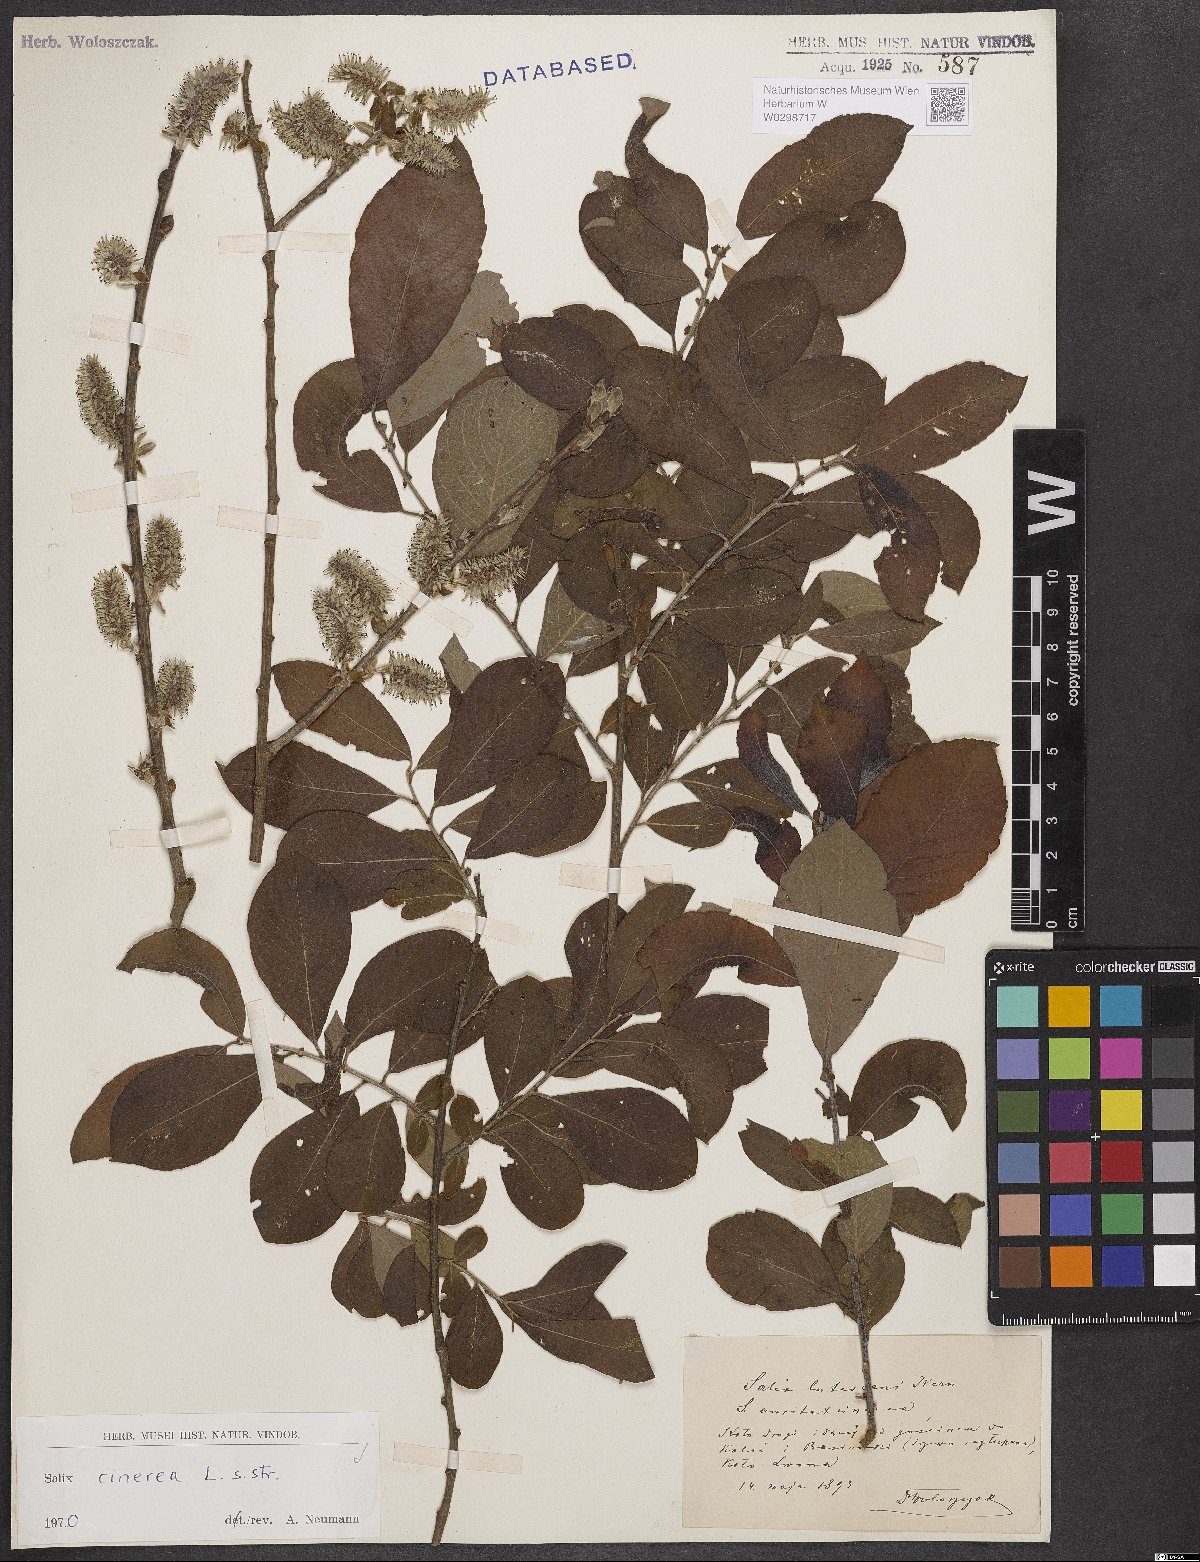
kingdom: Plantae
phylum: Tracheophyta
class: Magnoliopsida
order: Malpighiales
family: Salicaceae
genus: Salix
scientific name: Salix cinerea
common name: Common sallow
